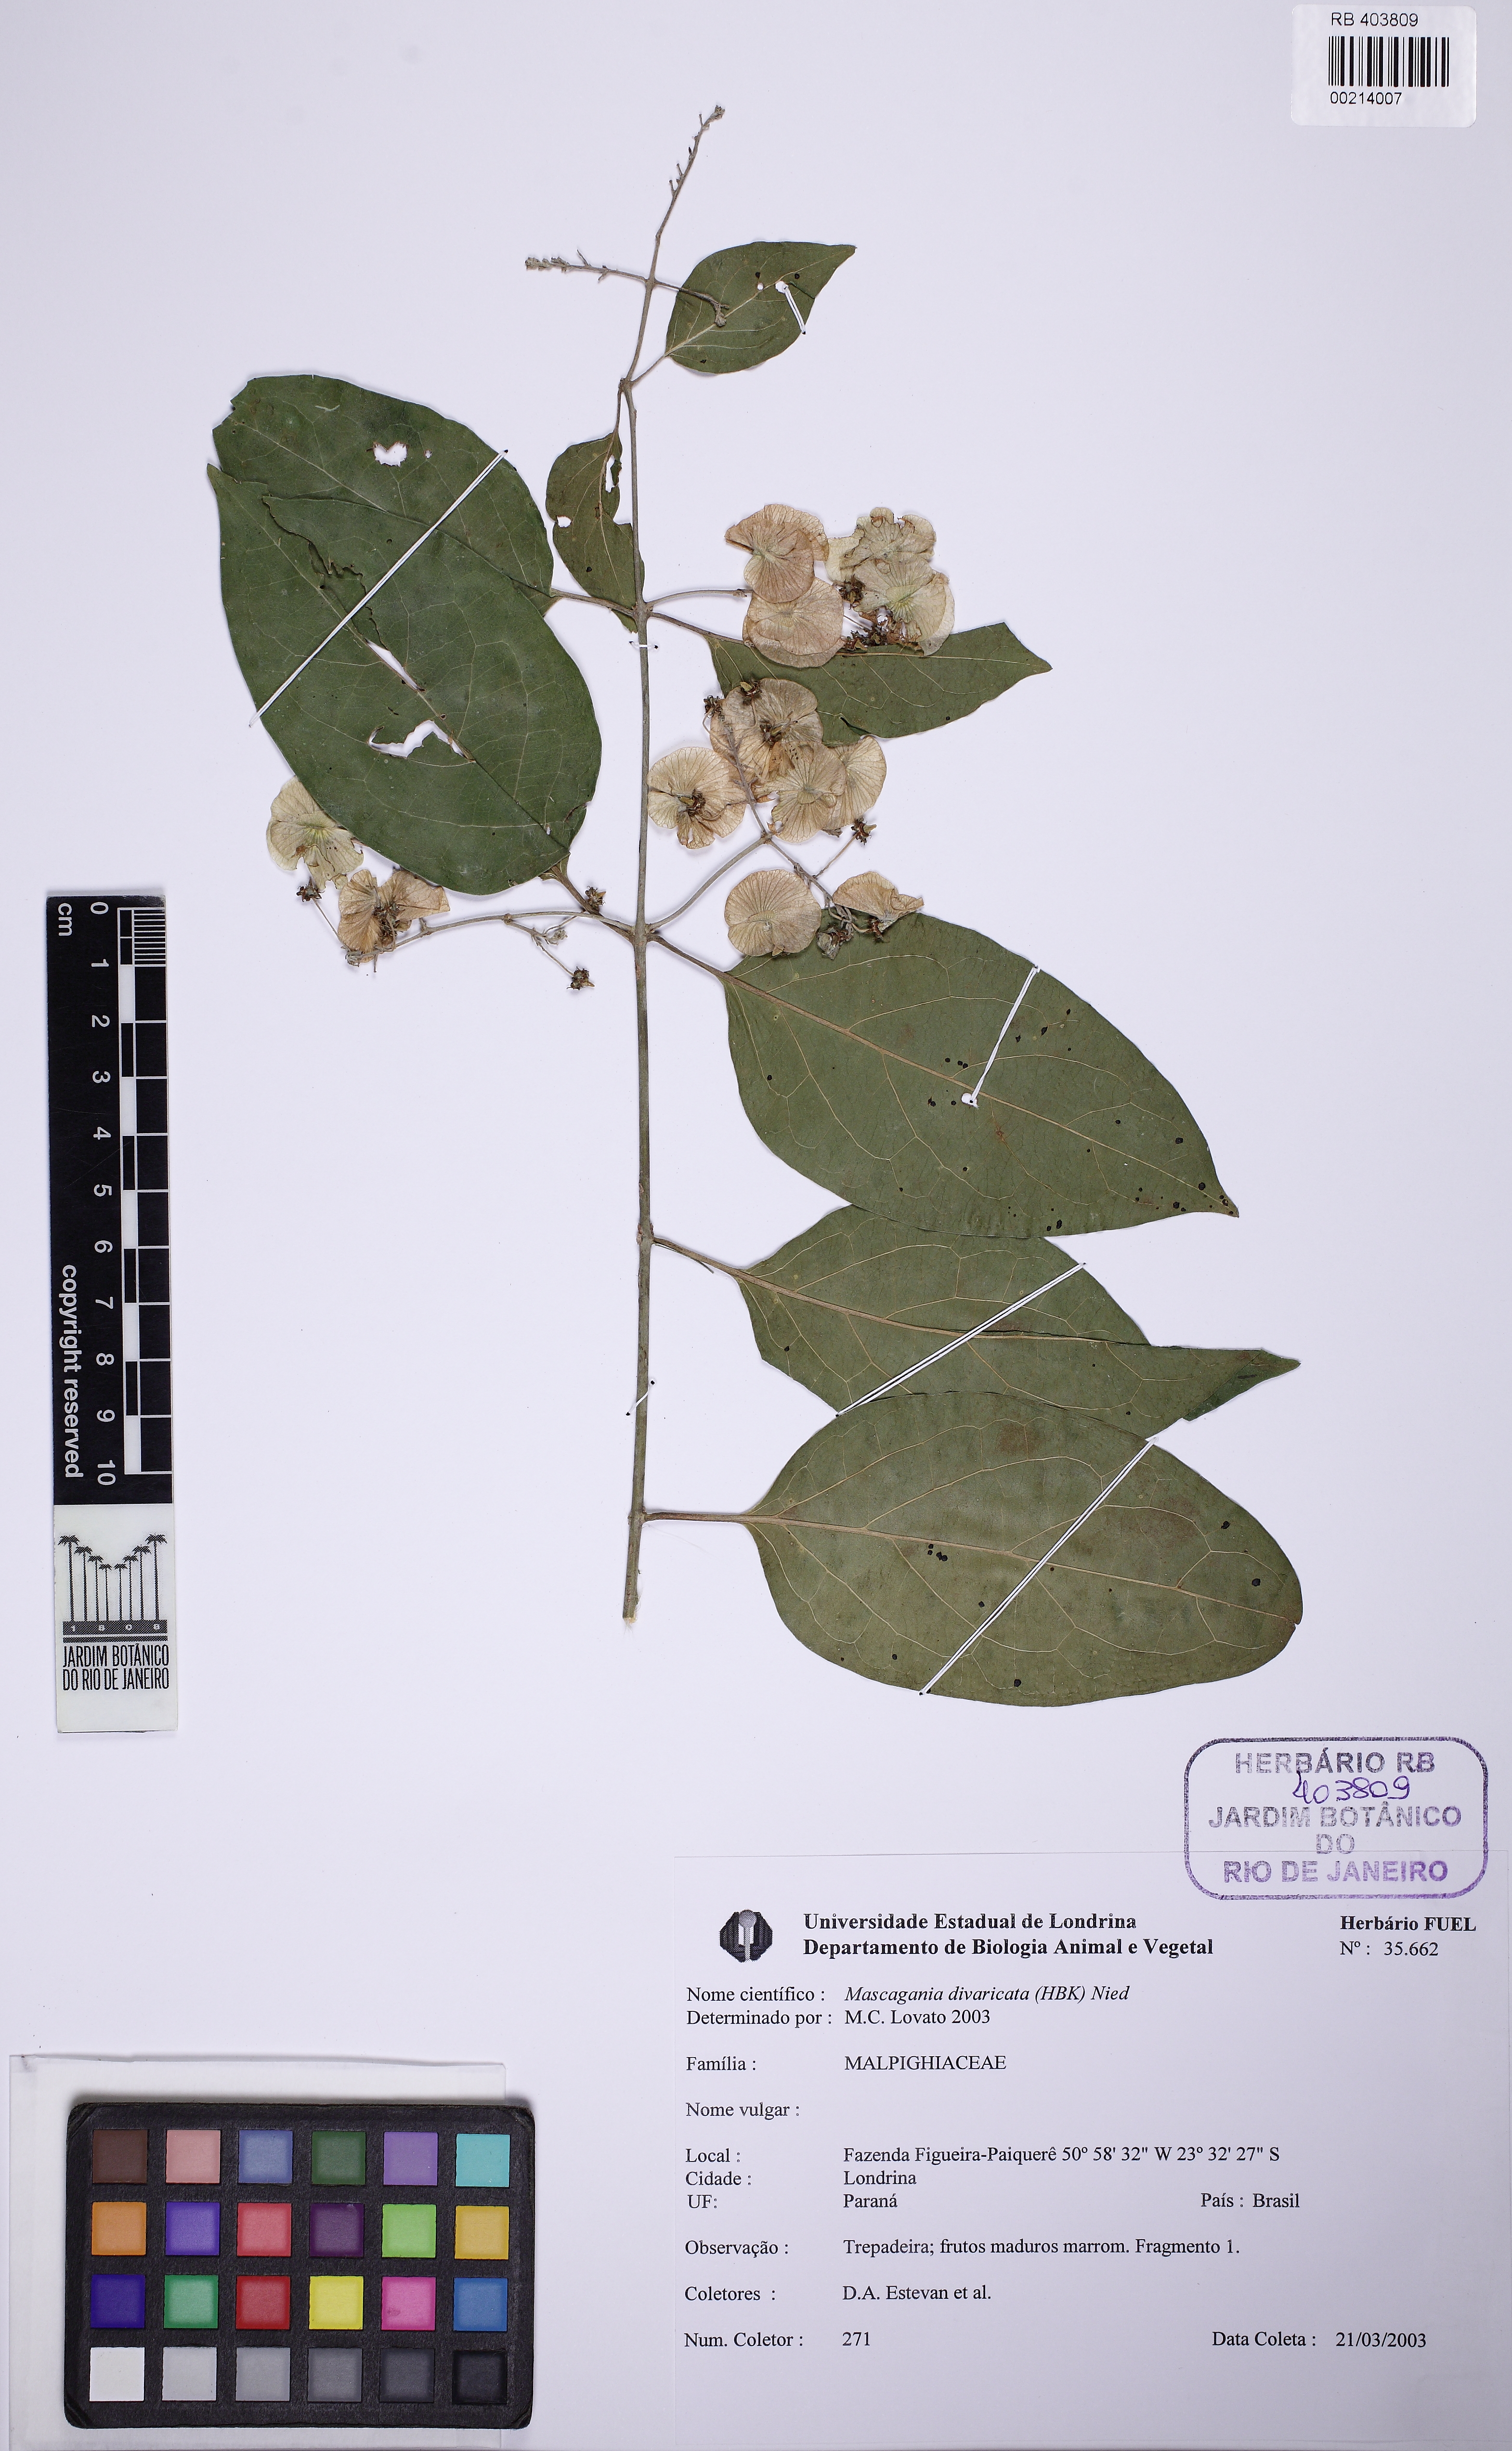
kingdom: Plantae
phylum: Tracheophyta
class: Magnoliopsida
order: Malpighiales
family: Malpighiaceae
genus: Mascagnia
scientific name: Mascagnia divaricata
